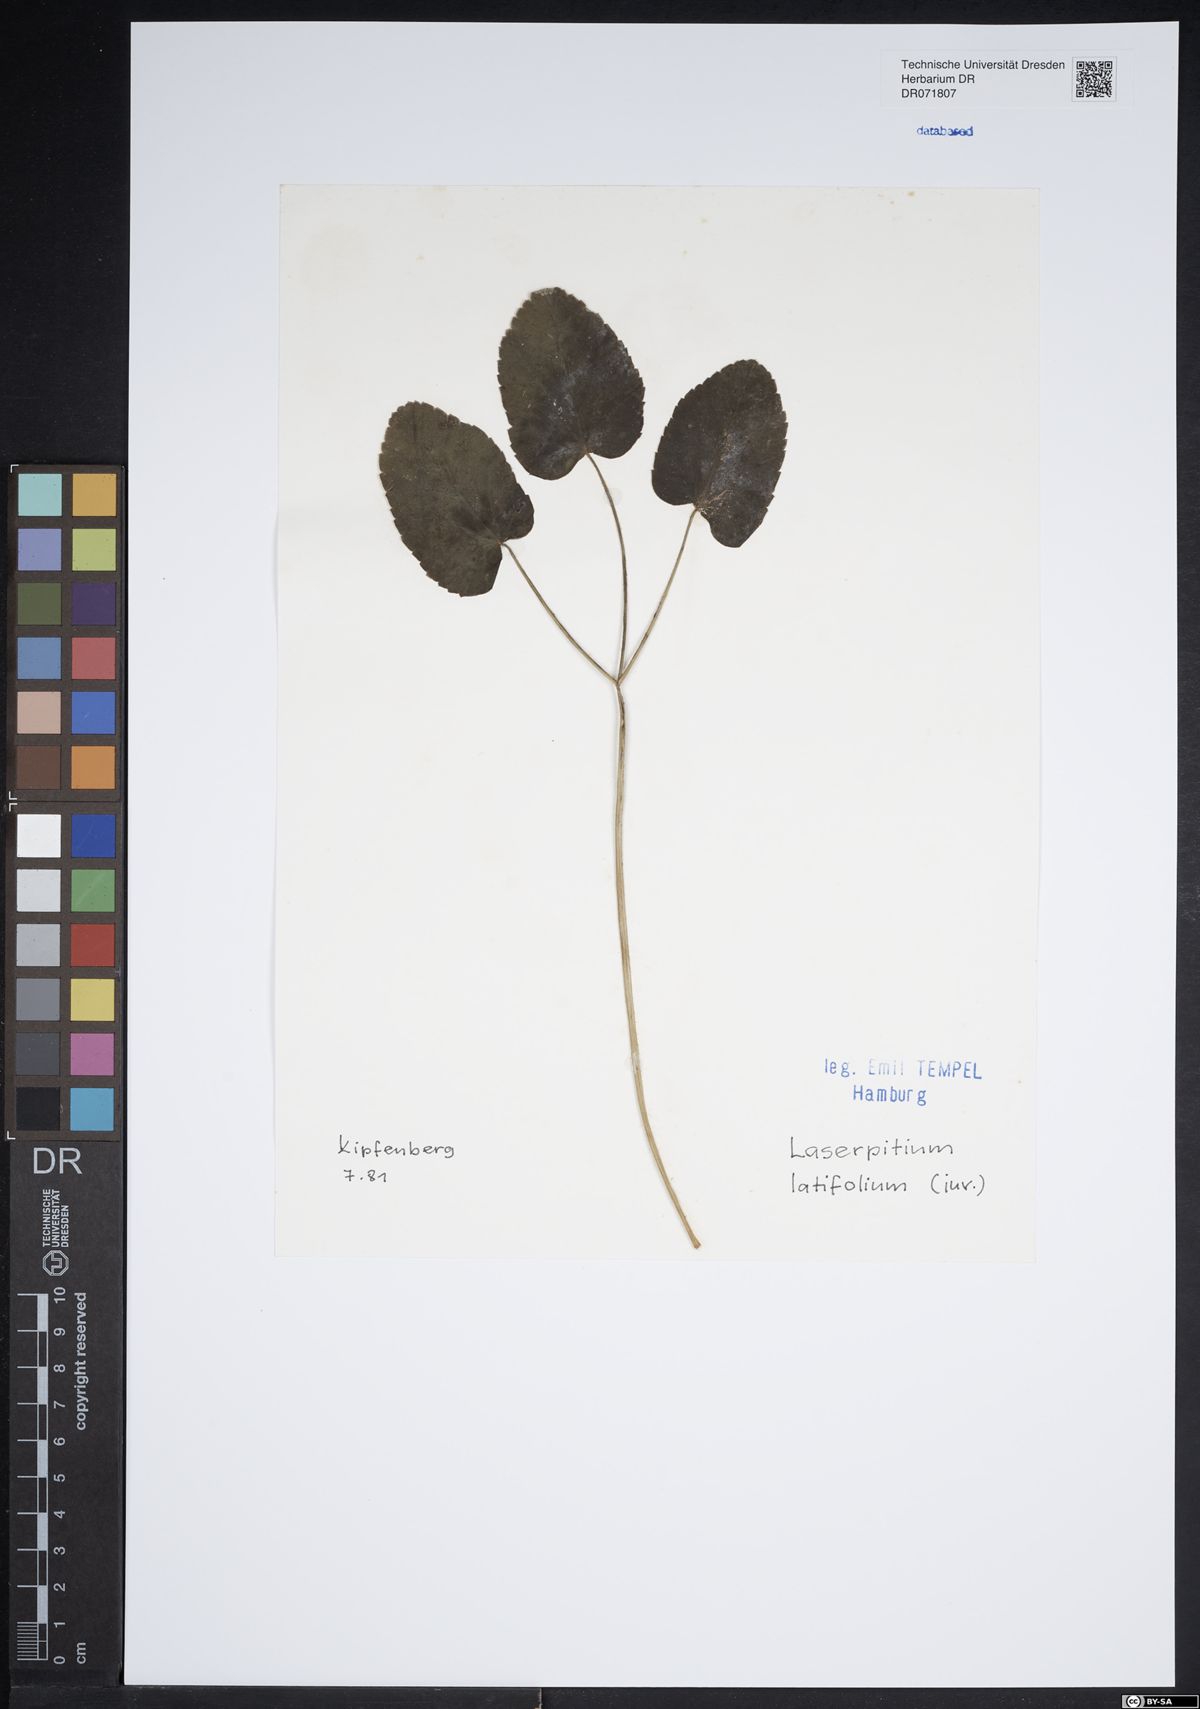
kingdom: Plantae
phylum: Tracheophyta
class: Magnoliopsida
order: Apiales
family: Apiaceae
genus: Laserpitium
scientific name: Laserpitium latifolium
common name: Broadleaf sermountain
